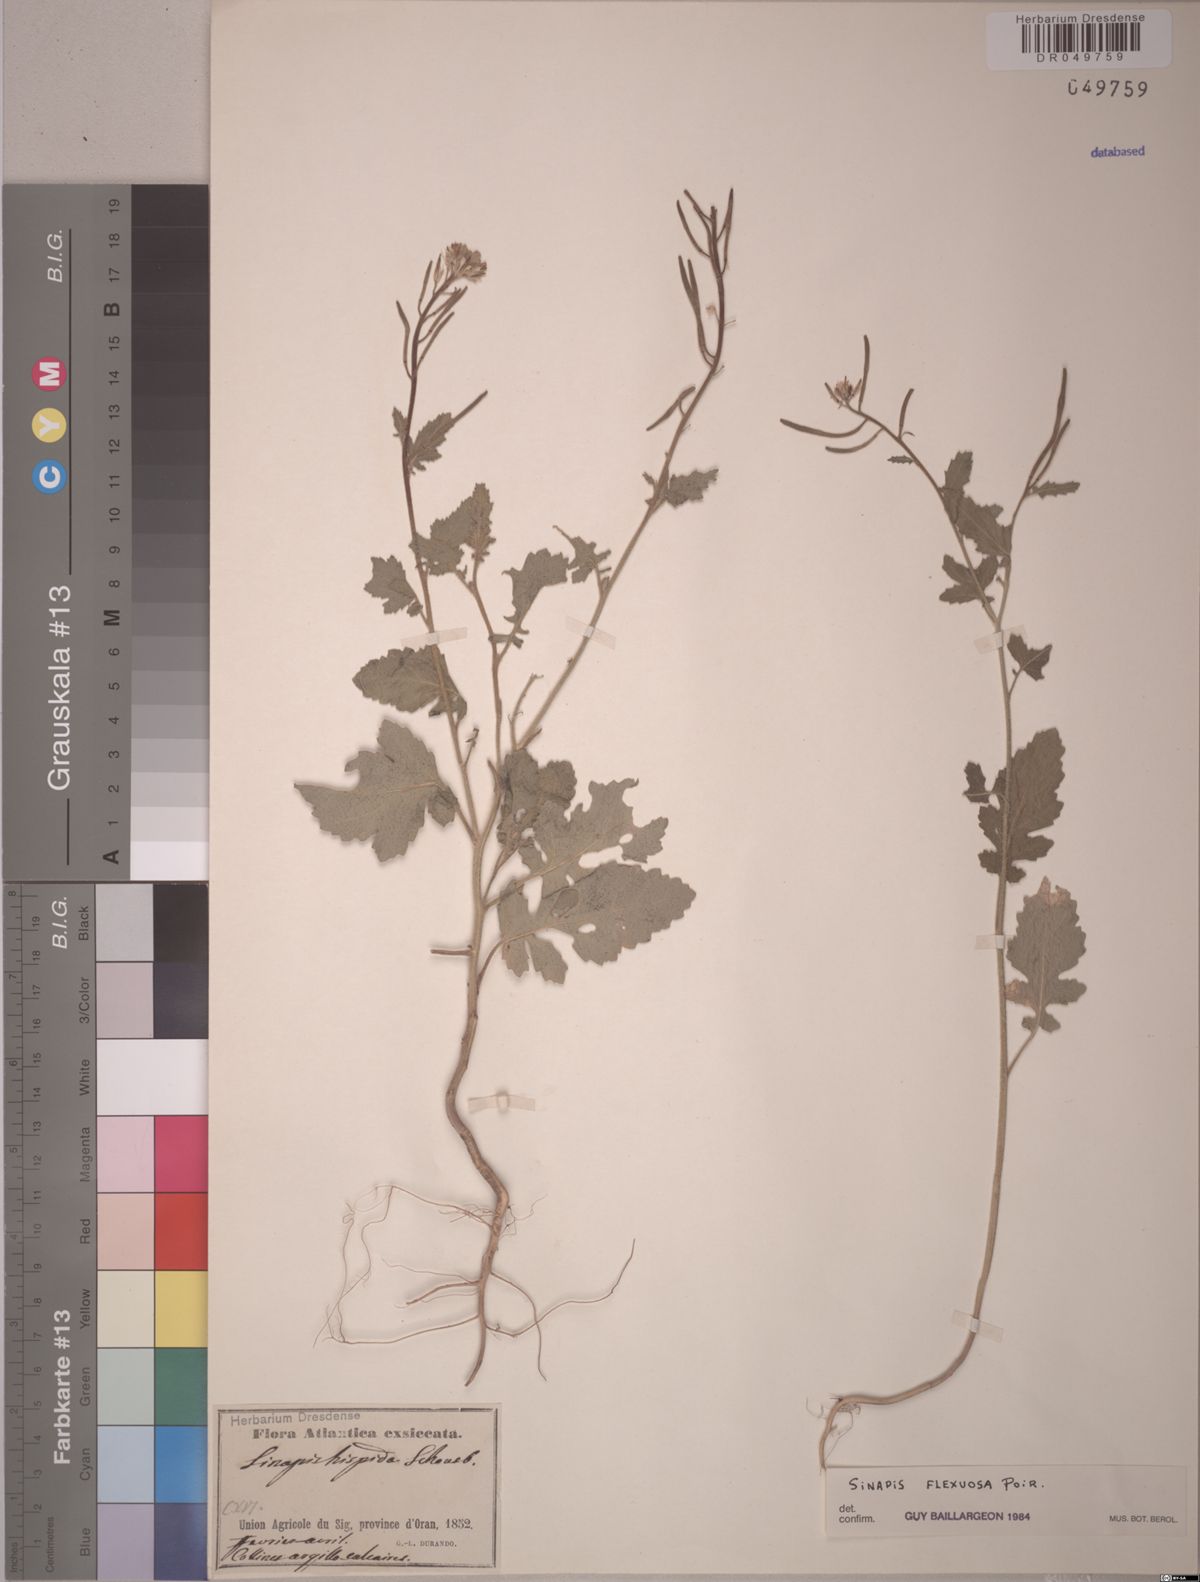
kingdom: Plantae
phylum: Tracheophyta
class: Magnoliopsida
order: Brassicales
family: Brassicaceae
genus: Sinapis
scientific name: Sinapis flexuosa
